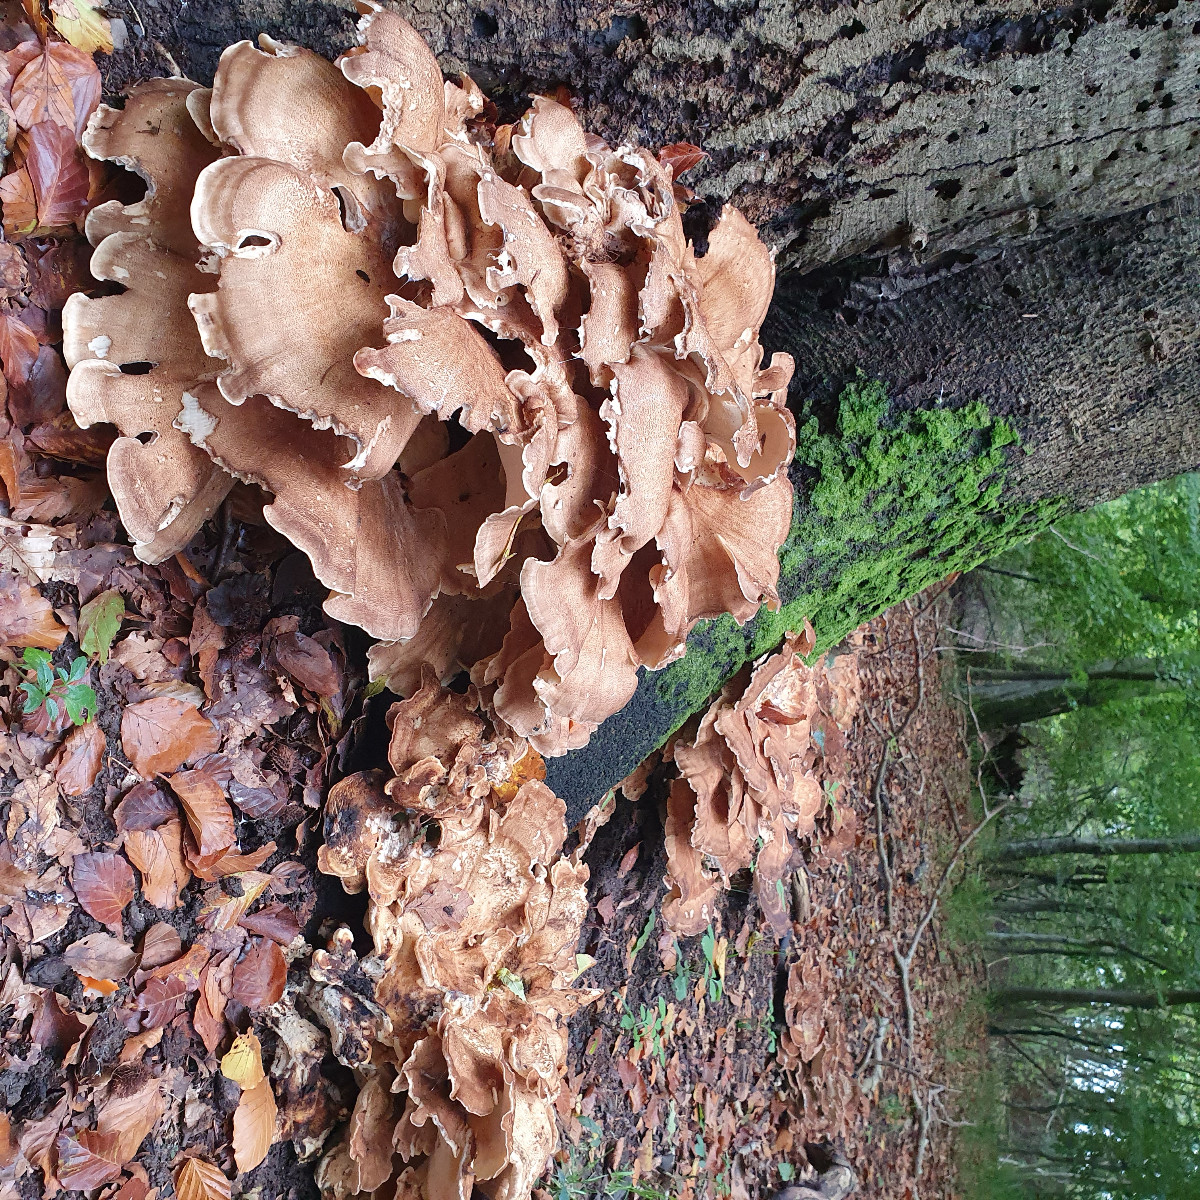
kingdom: Fungi
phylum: Basidiomycota
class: Agaricomycetes
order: Polyporales
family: Meripilaceae
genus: Meripilus
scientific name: Meripilus giganteus
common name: kæmpeporesvamp
